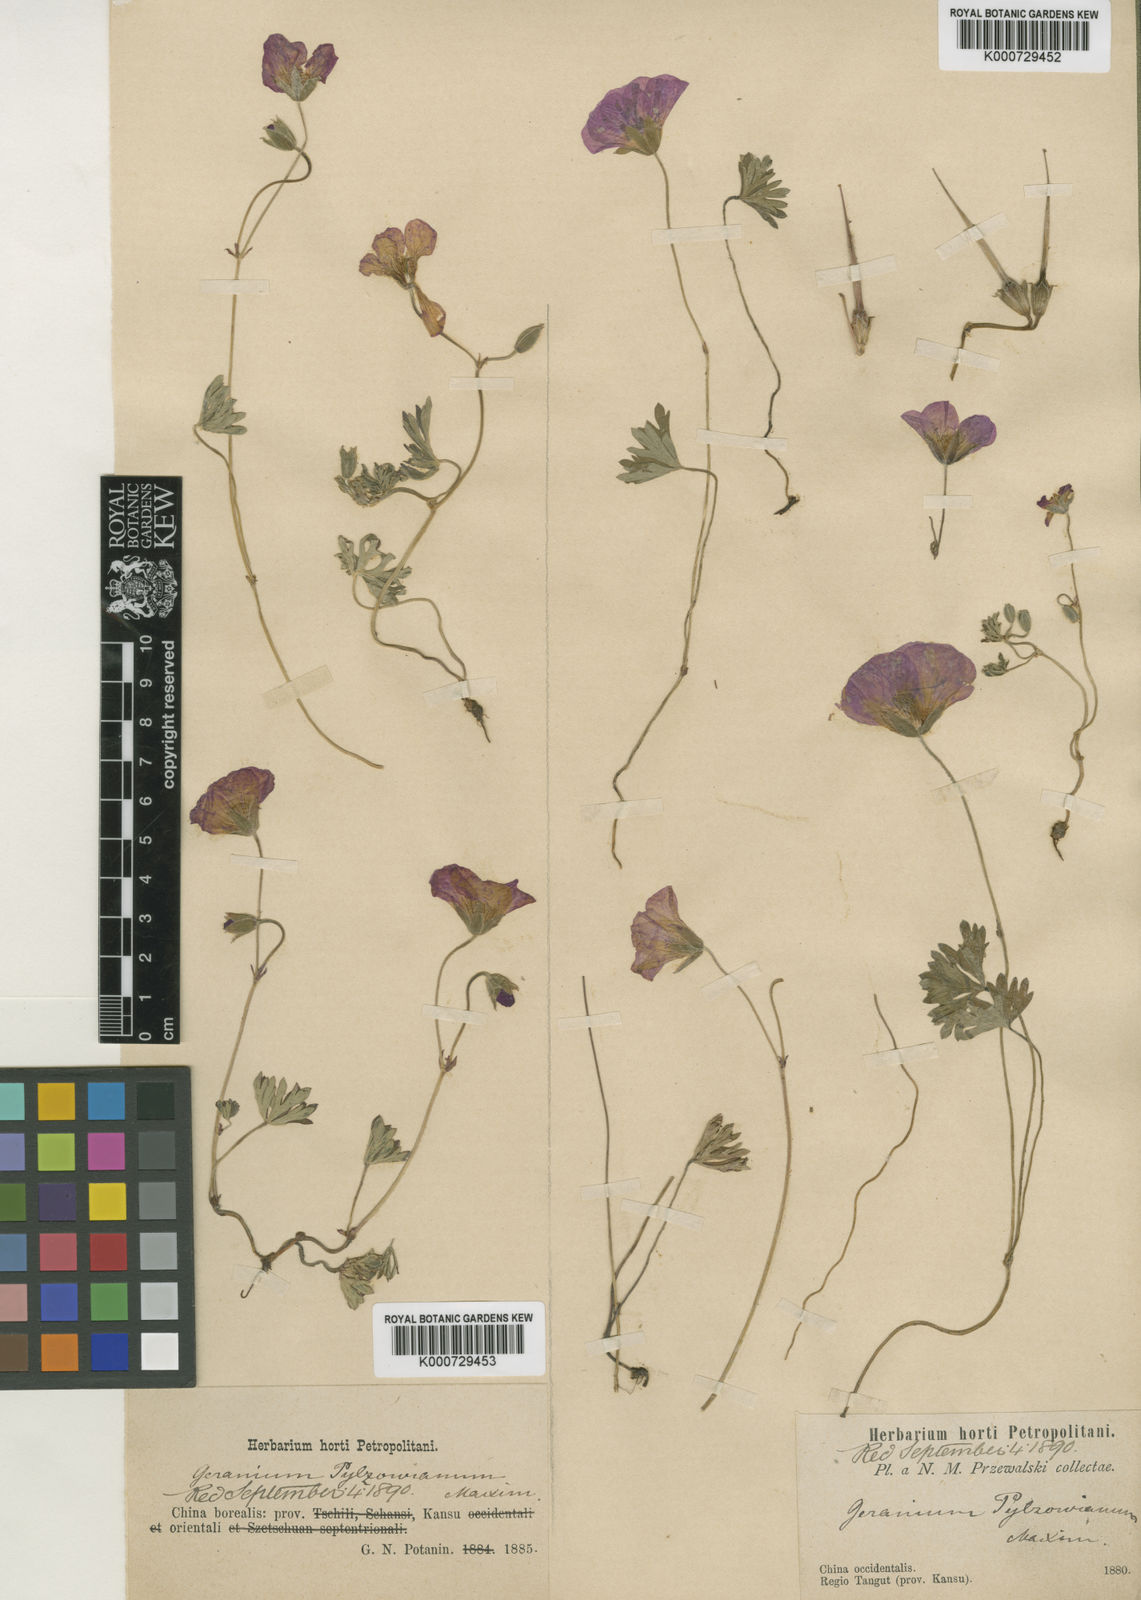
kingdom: Plantae
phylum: Tracheophyta
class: Magnoliopsida
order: Geraniales
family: Geraniaceae
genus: Geranium
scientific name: Geranium pylzowianum
